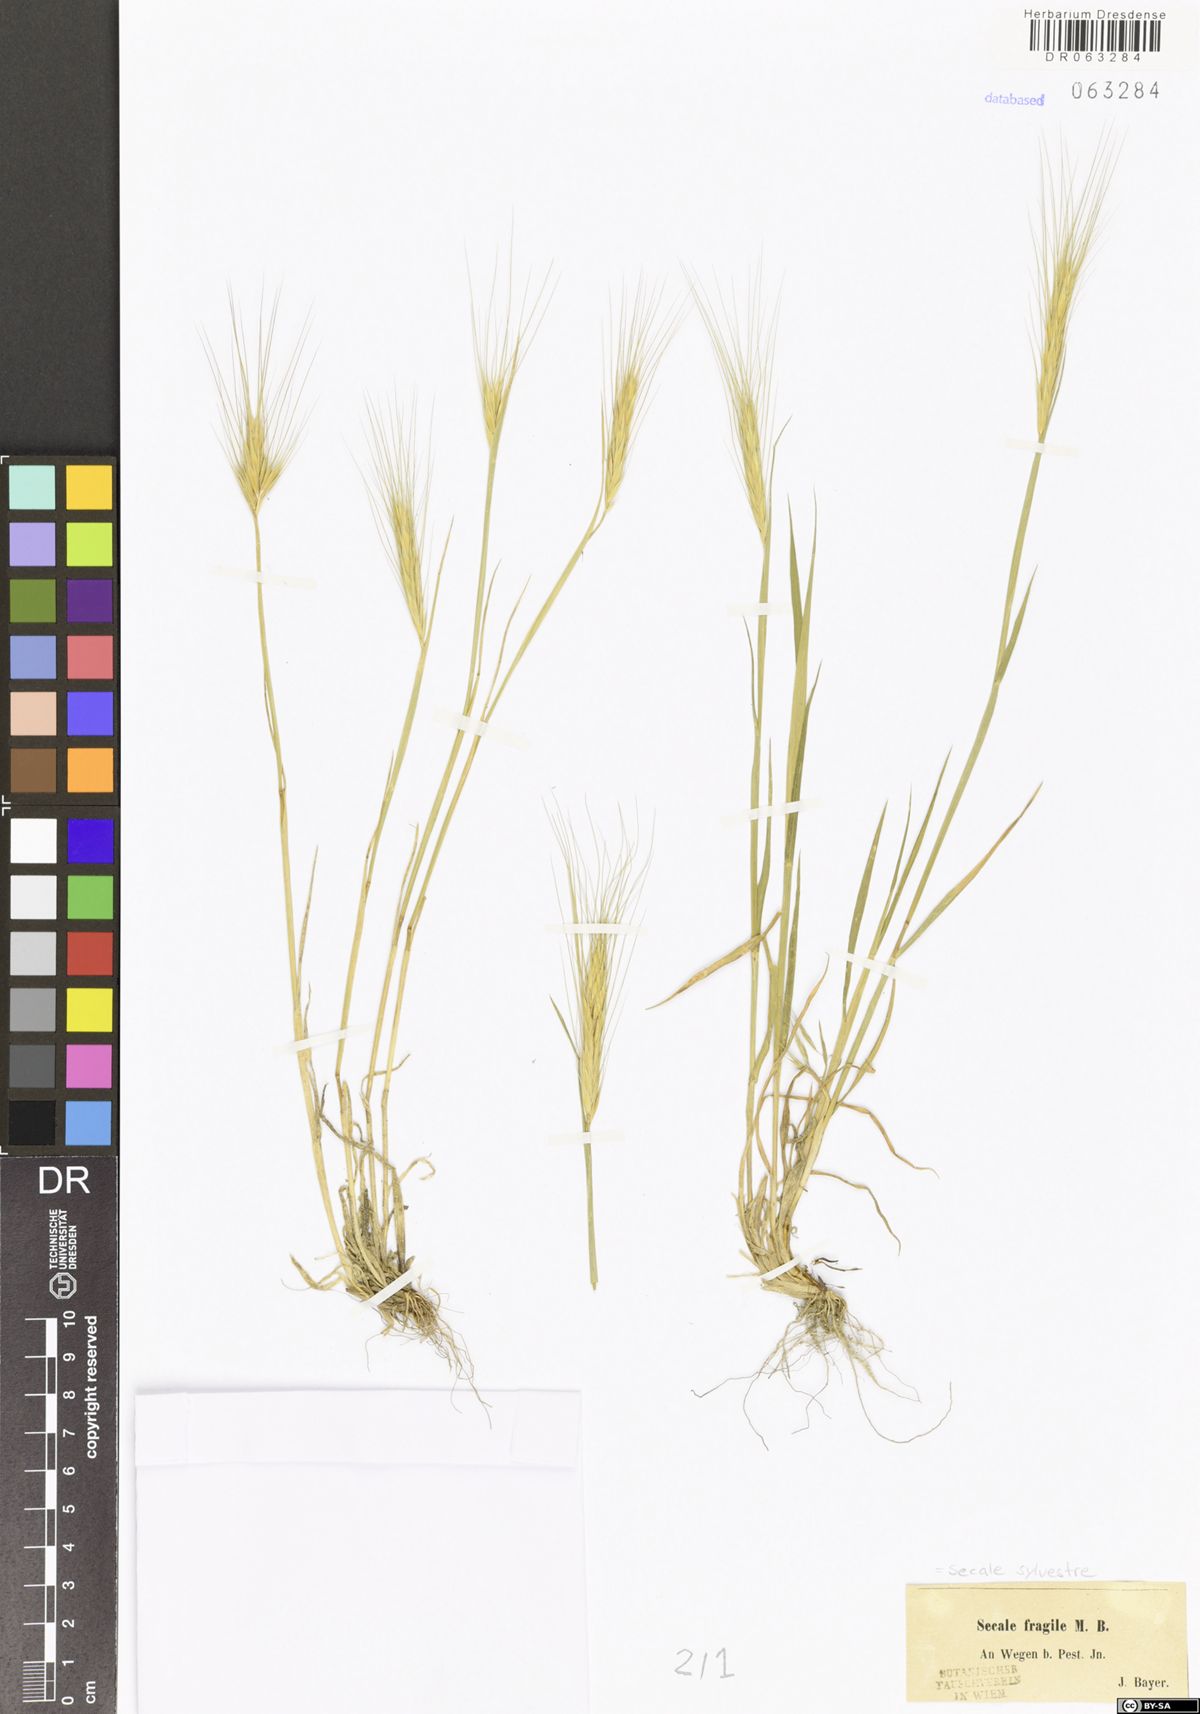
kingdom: Plantae
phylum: Tracheophyta
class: Liliopsida
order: Poales
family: Poaceae
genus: Secale
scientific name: Secale sylvestre
